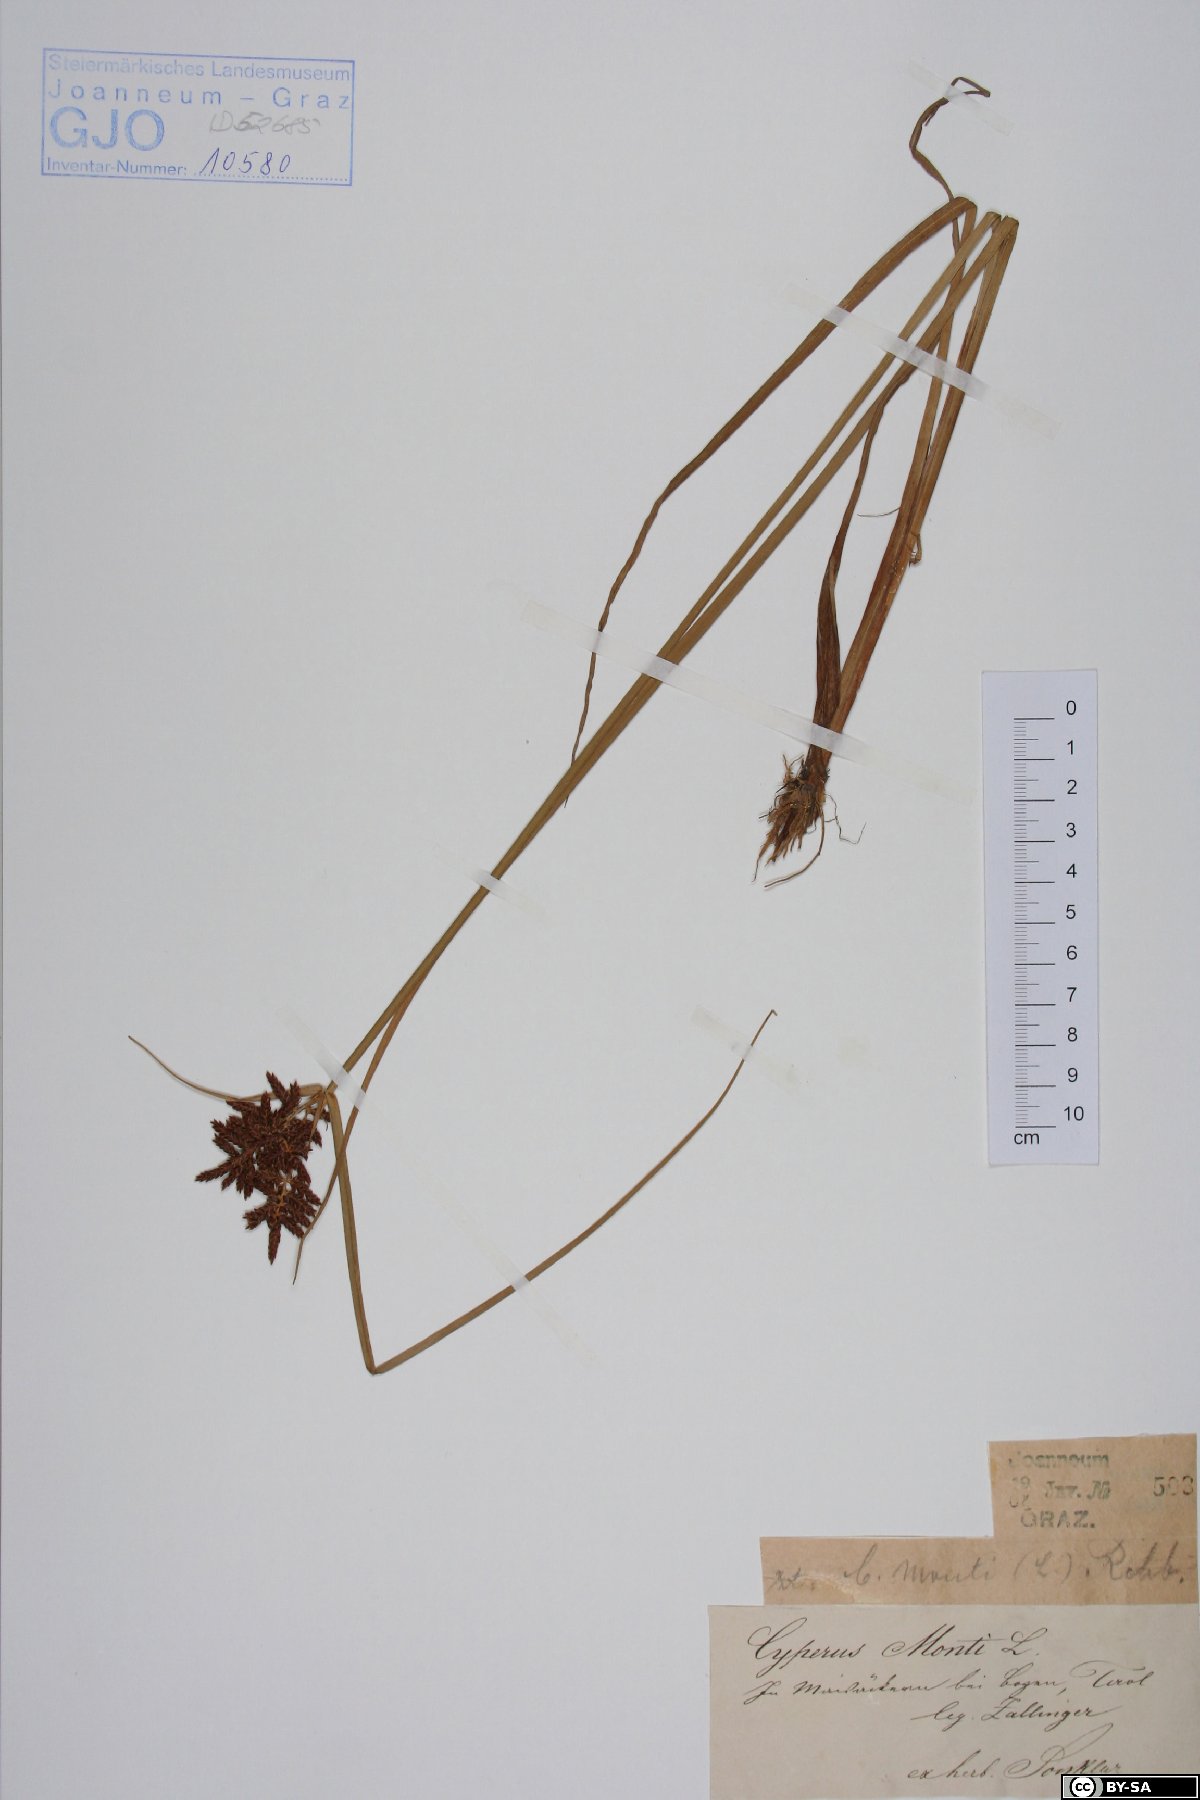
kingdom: Plantae
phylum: Tracheophyta
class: Liliopsida
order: Poales
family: Cyperaceae
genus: Cyperus
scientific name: Cyperus serotinus
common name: Tidalmarsh flatsedge
